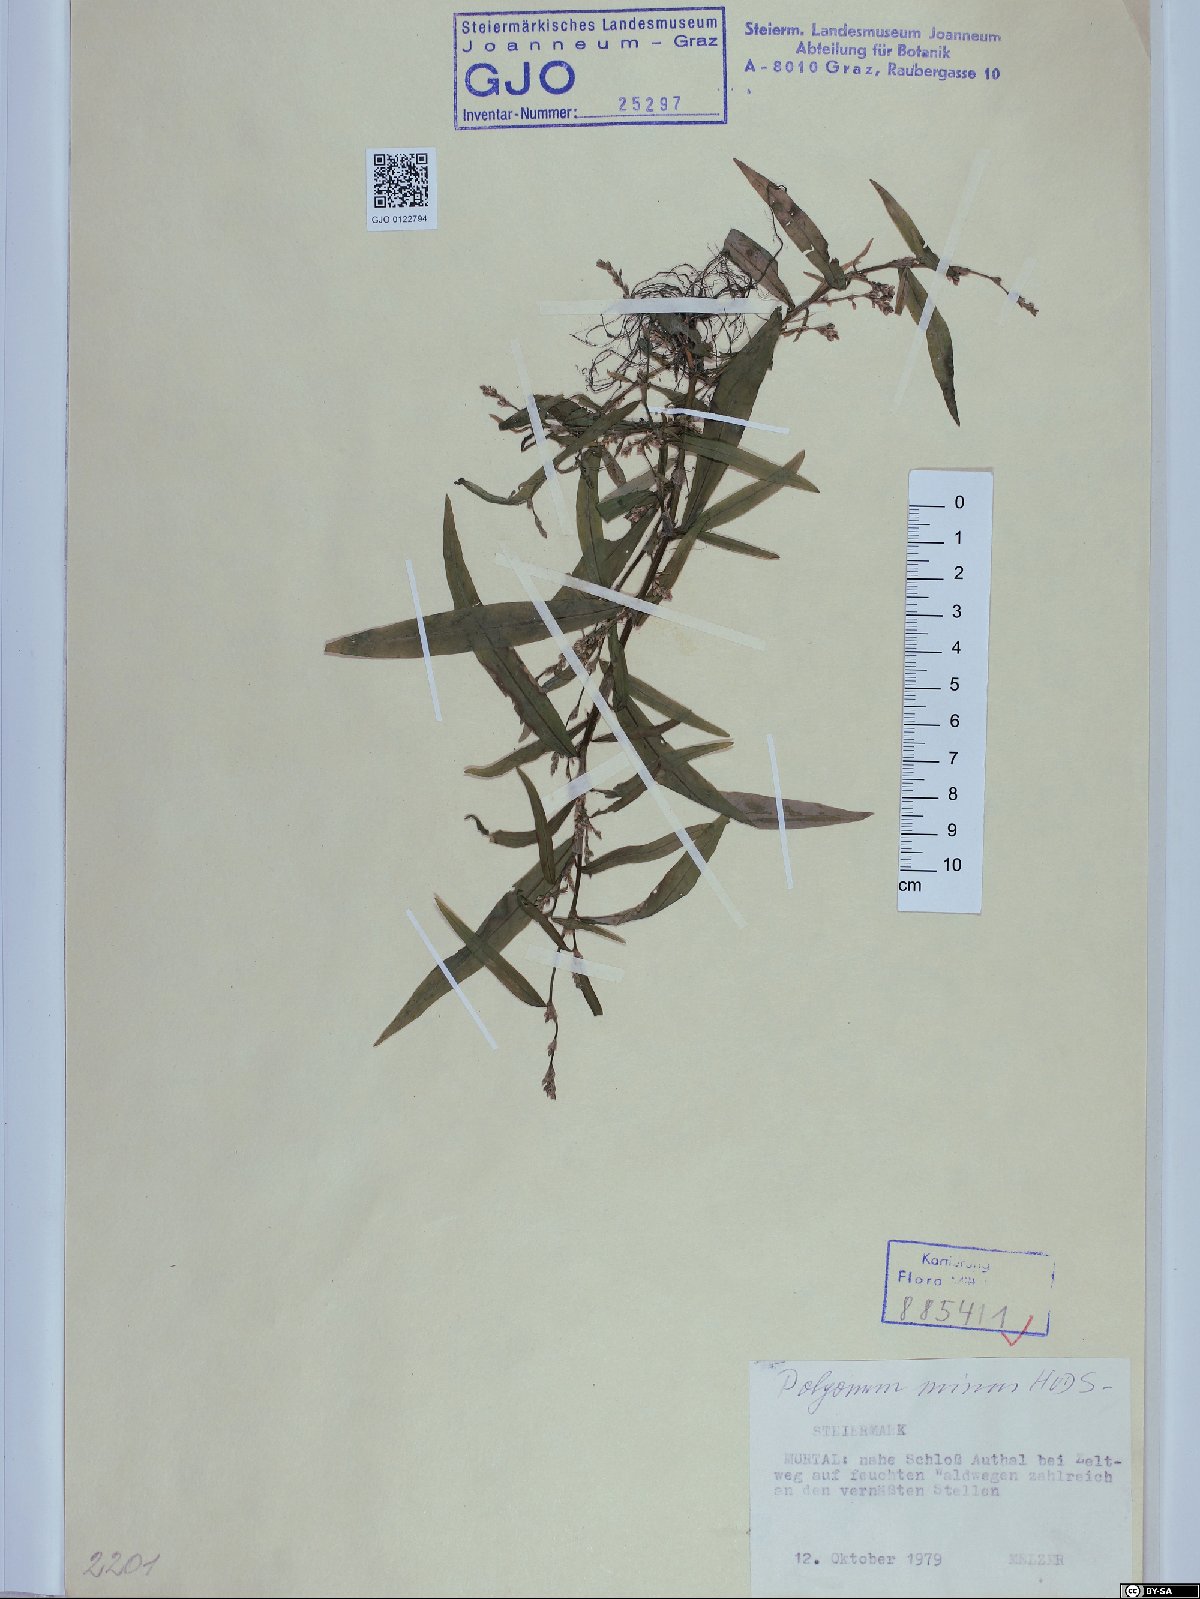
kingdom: Plantae
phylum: Tracheophyta
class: Magnoliopsida
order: Caryophyllales
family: Polygonaceae
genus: Persicaria
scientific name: Persicaria minor
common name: Small water-pepper
